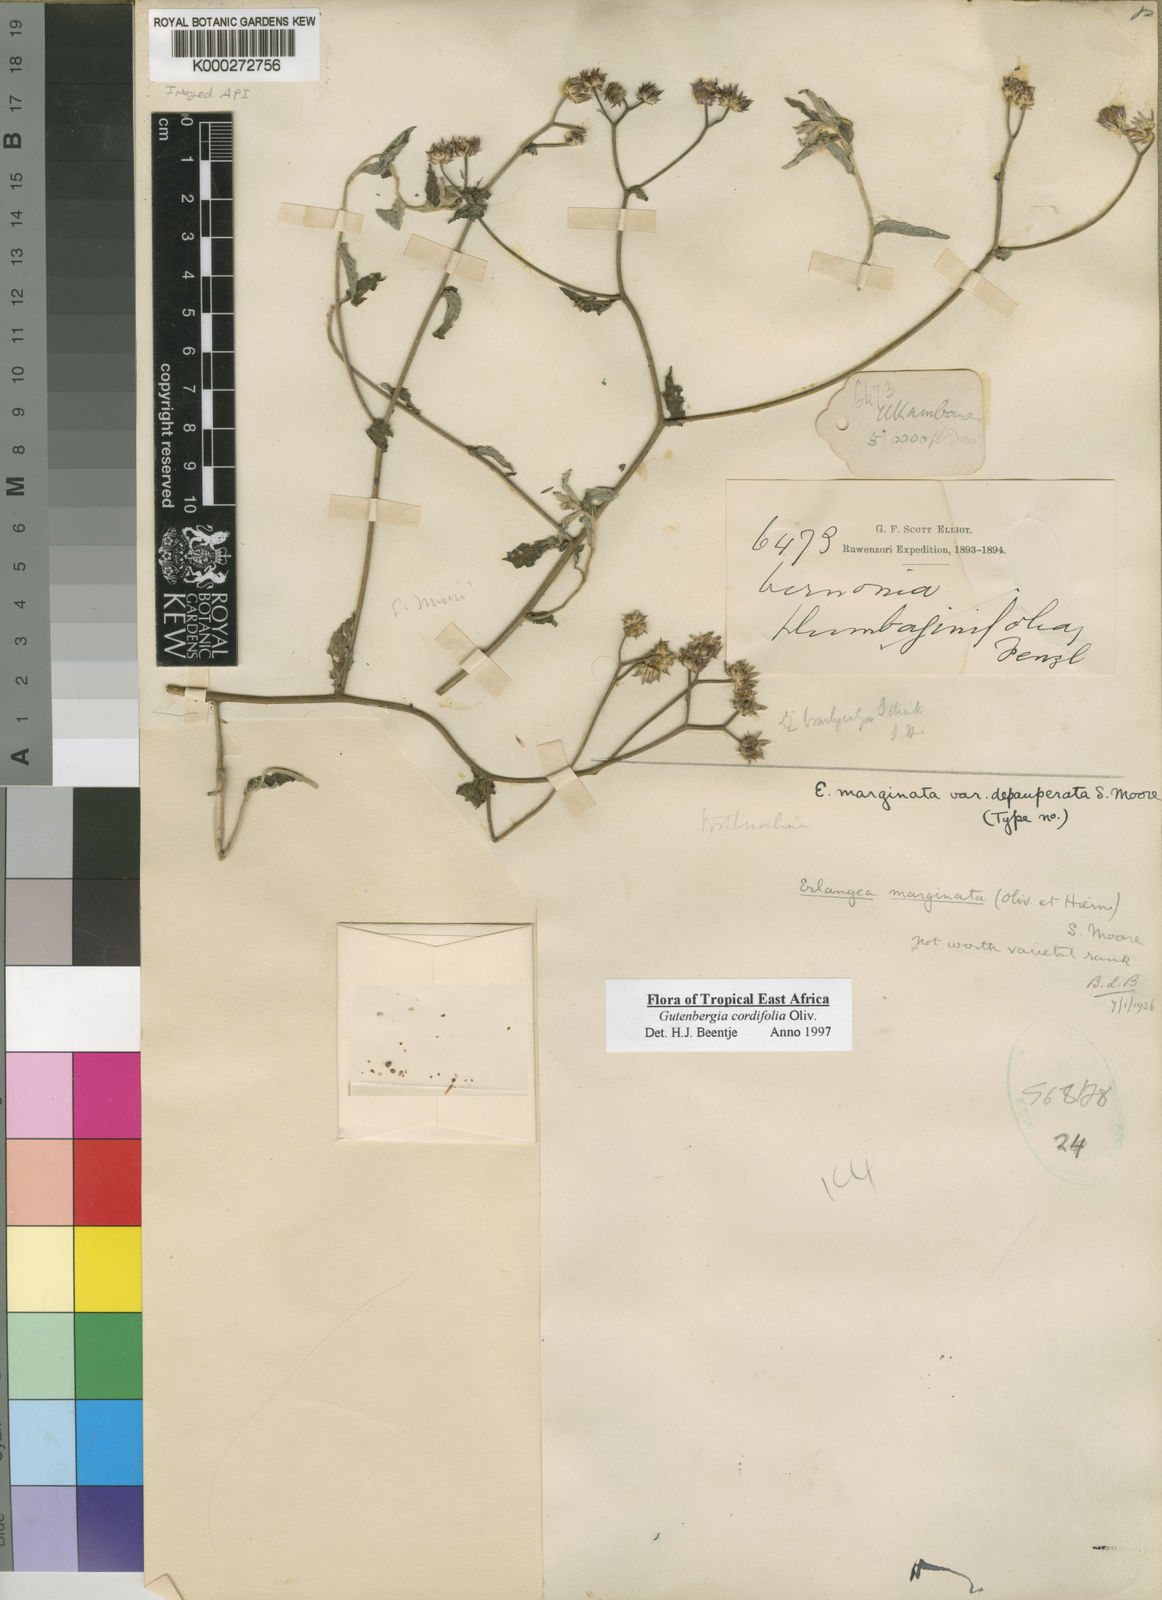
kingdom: Plantae
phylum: Tracheophyta
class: Magnoliopsida
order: Asterales
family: Asteraceae
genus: Gutenbergia
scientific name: Gutenbergia cordifolia
